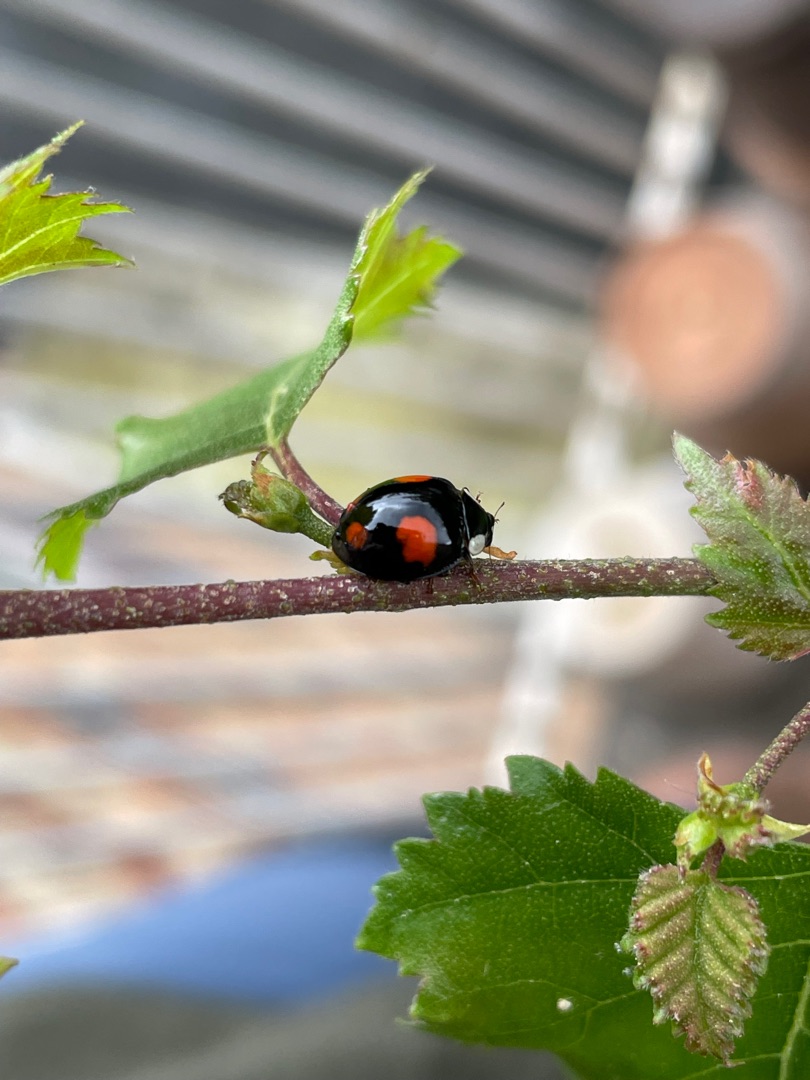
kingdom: Animalia
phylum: Arthropoda
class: Insecta
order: Coleoptera
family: Coccinellidae
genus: Harmonia
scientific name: Harmonia axyridis
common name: Harlekinmariehøne
